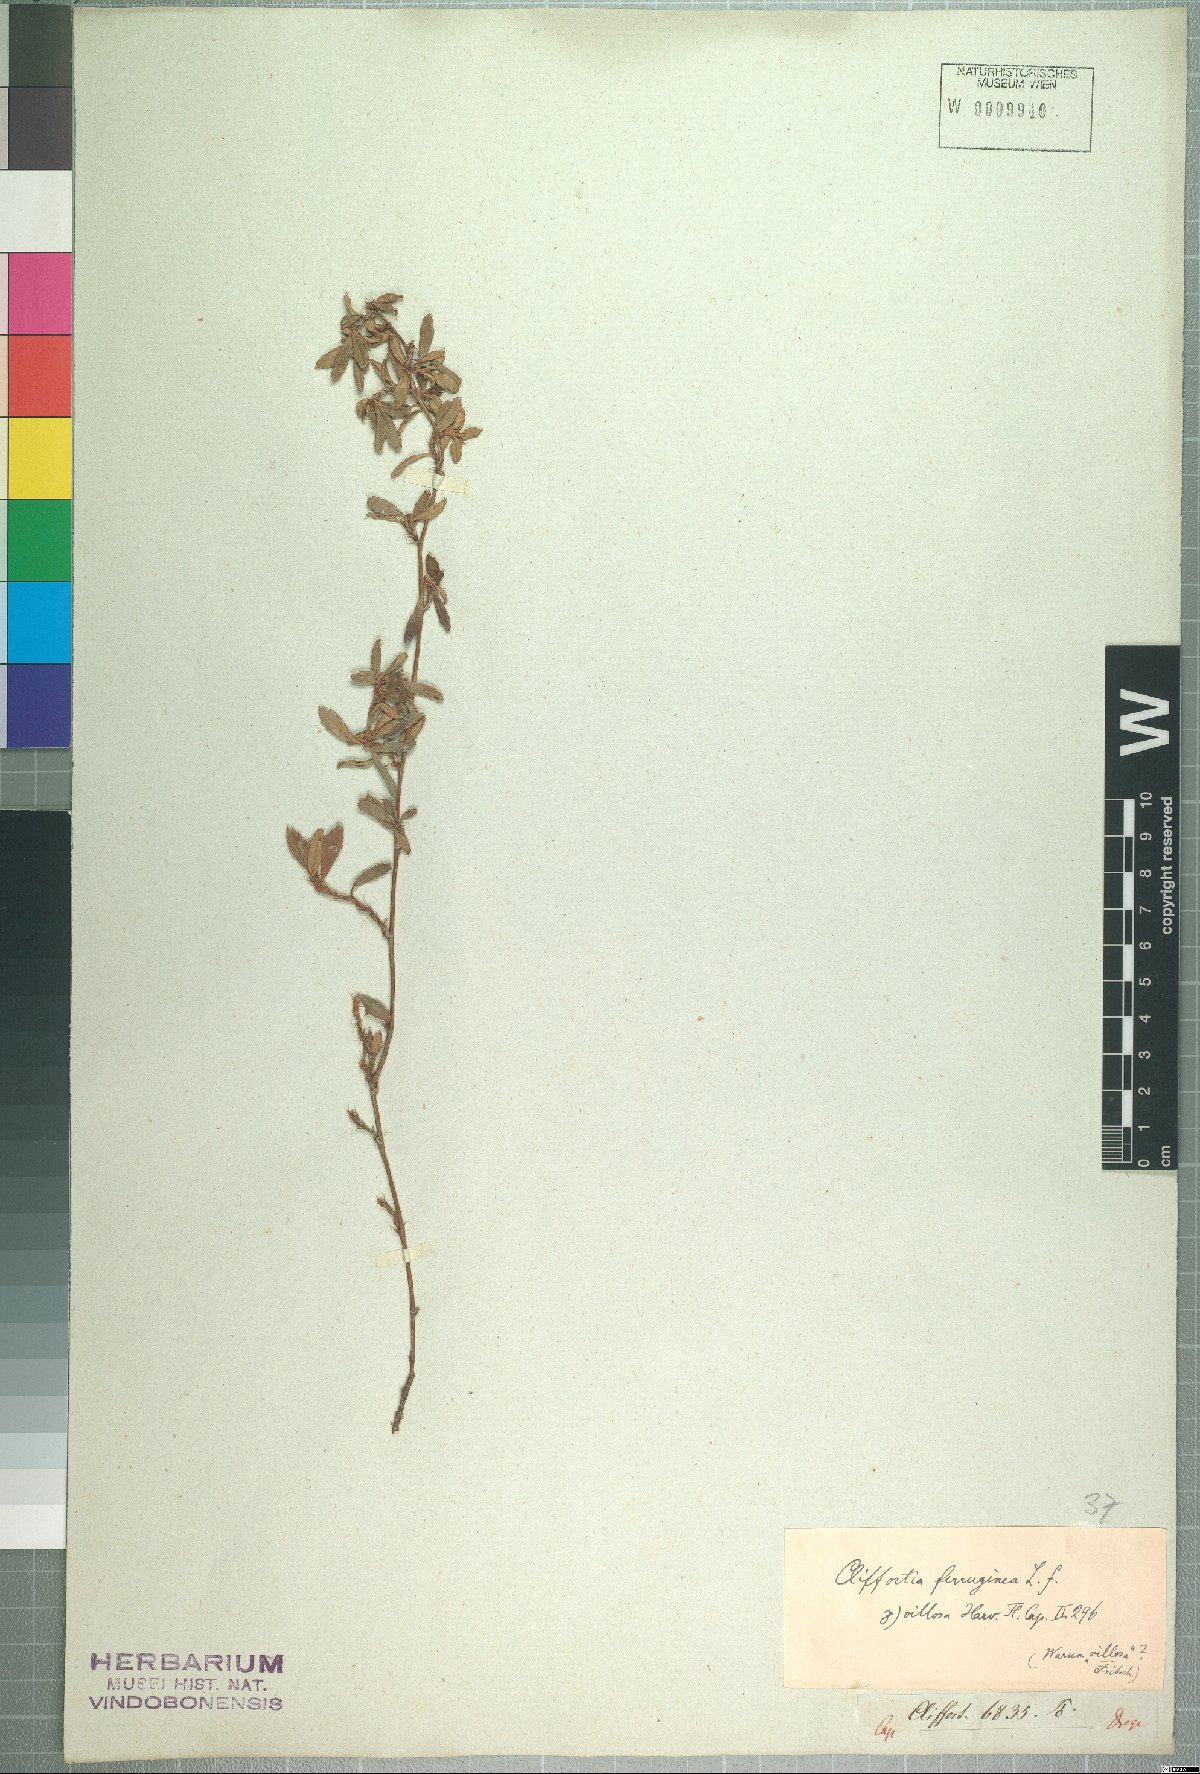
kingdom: Plantae
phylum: Tracheophyta
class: Magnoliopsida
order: Rosales
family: Rosaceae
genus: Cliffortia
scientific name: Cliffortia ferruginea
